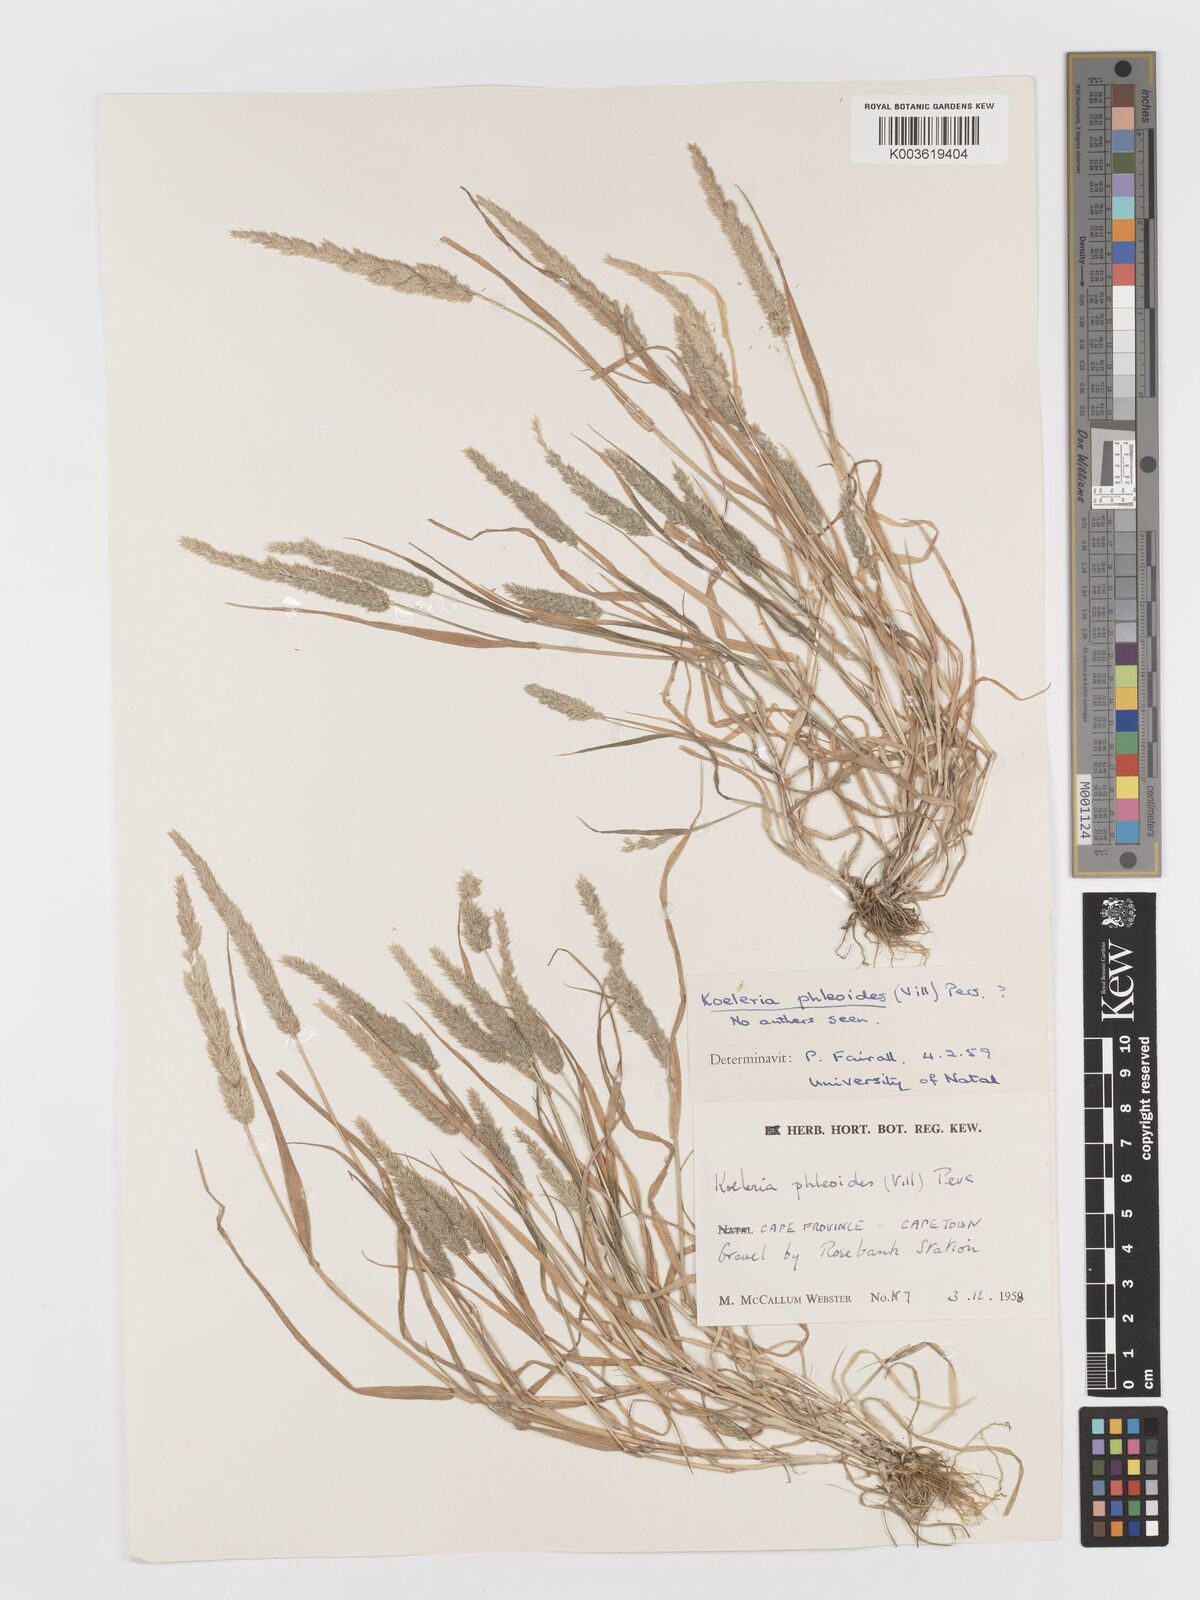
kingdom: Plantae
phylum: Tracheophyta
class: Liliopsida
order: Poales
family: Poaceae
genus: Rostraria
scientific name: Rostraria cristata
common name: Mediterranean hair-grass
